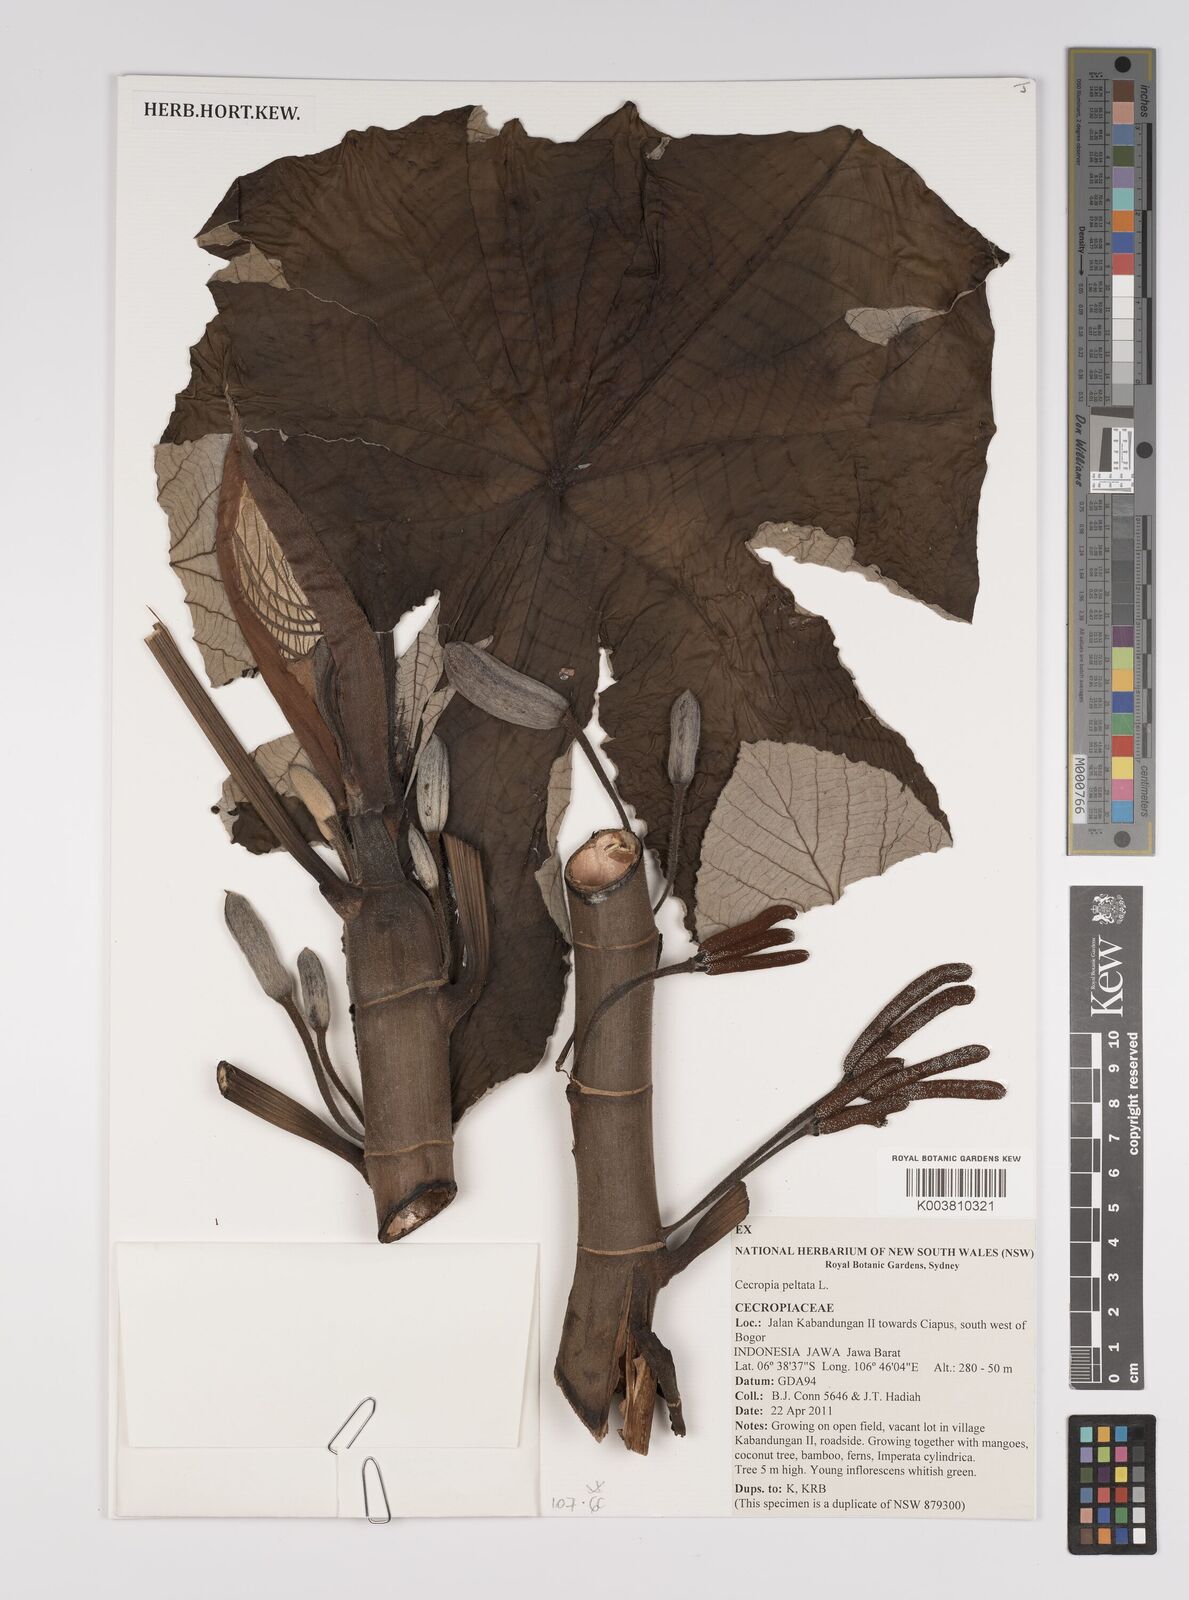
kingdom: Plantae
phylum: Tracheophyta
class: Magnoliopsida
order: Rosales
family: Urticaceae
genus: Cecropia
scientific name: Cecropia peltata
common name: Trumpet-tree
